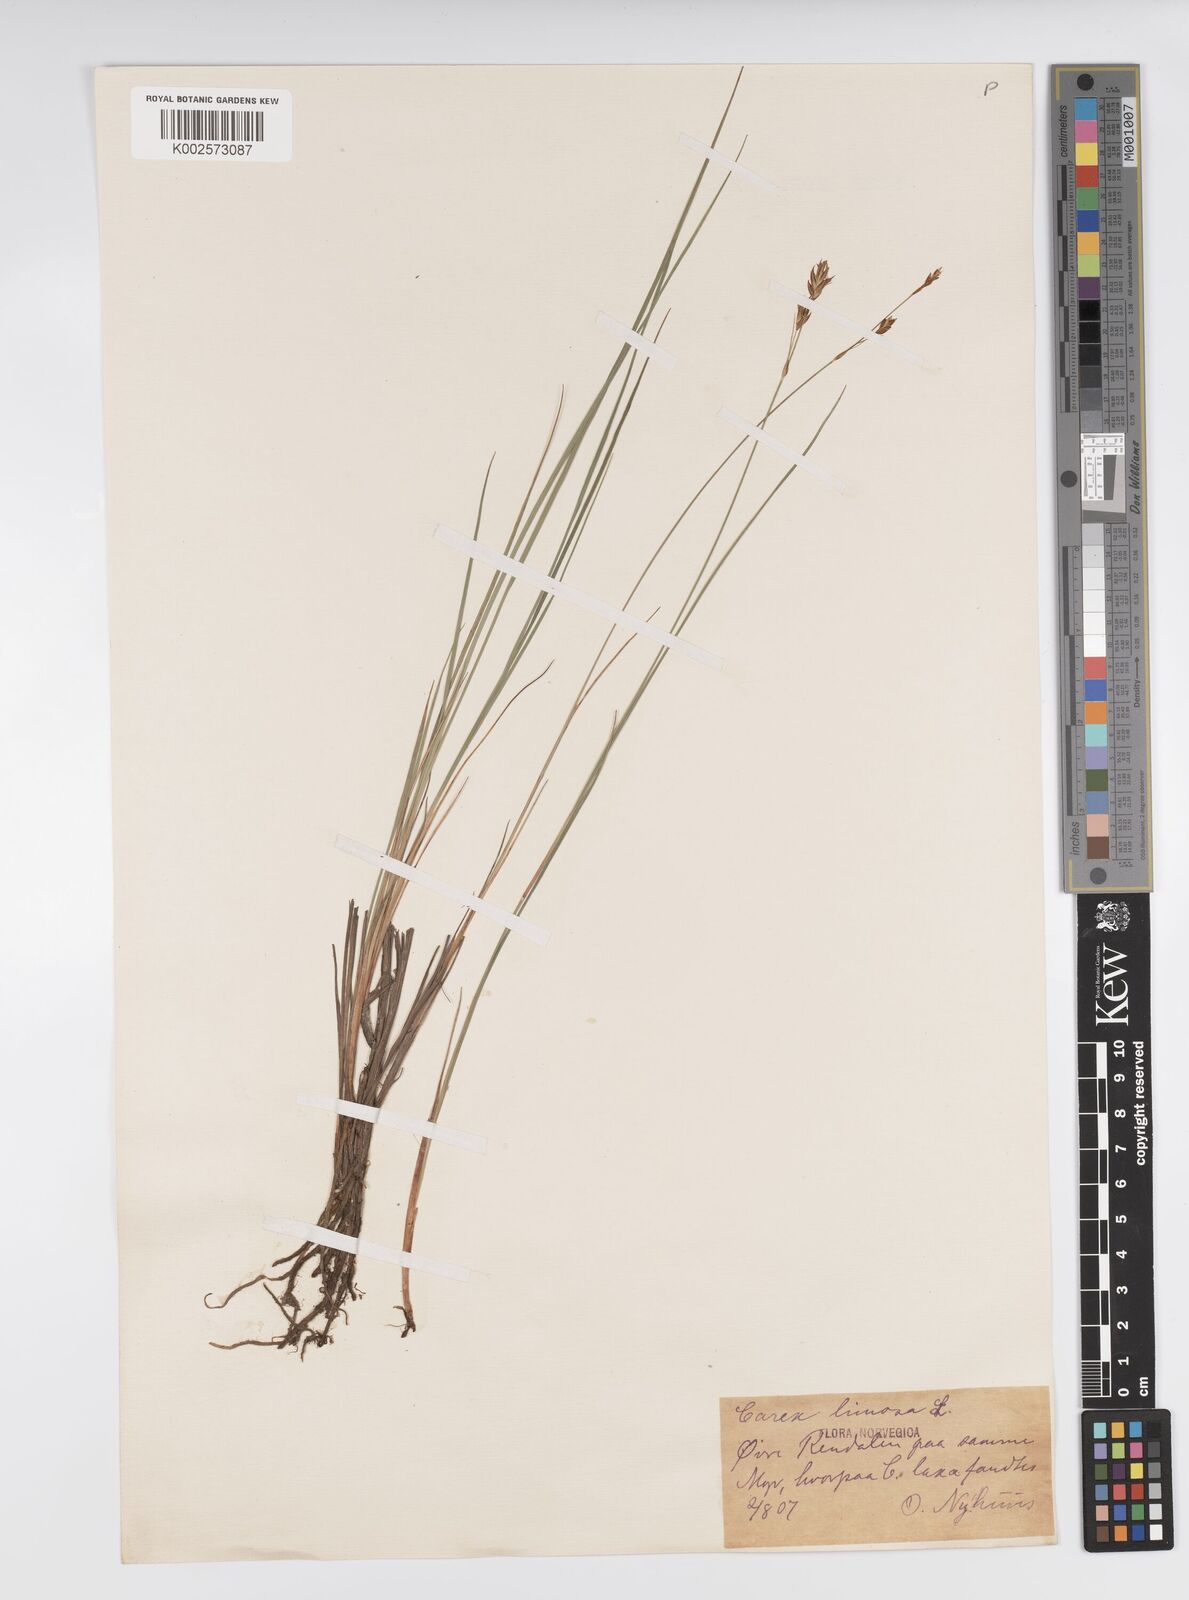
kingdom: Plantae
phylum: Tracheophyta
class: Liliopsida
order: Poales
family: Cyperaceae
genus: Carex
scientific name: Carex limosa
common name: Bog sedge
